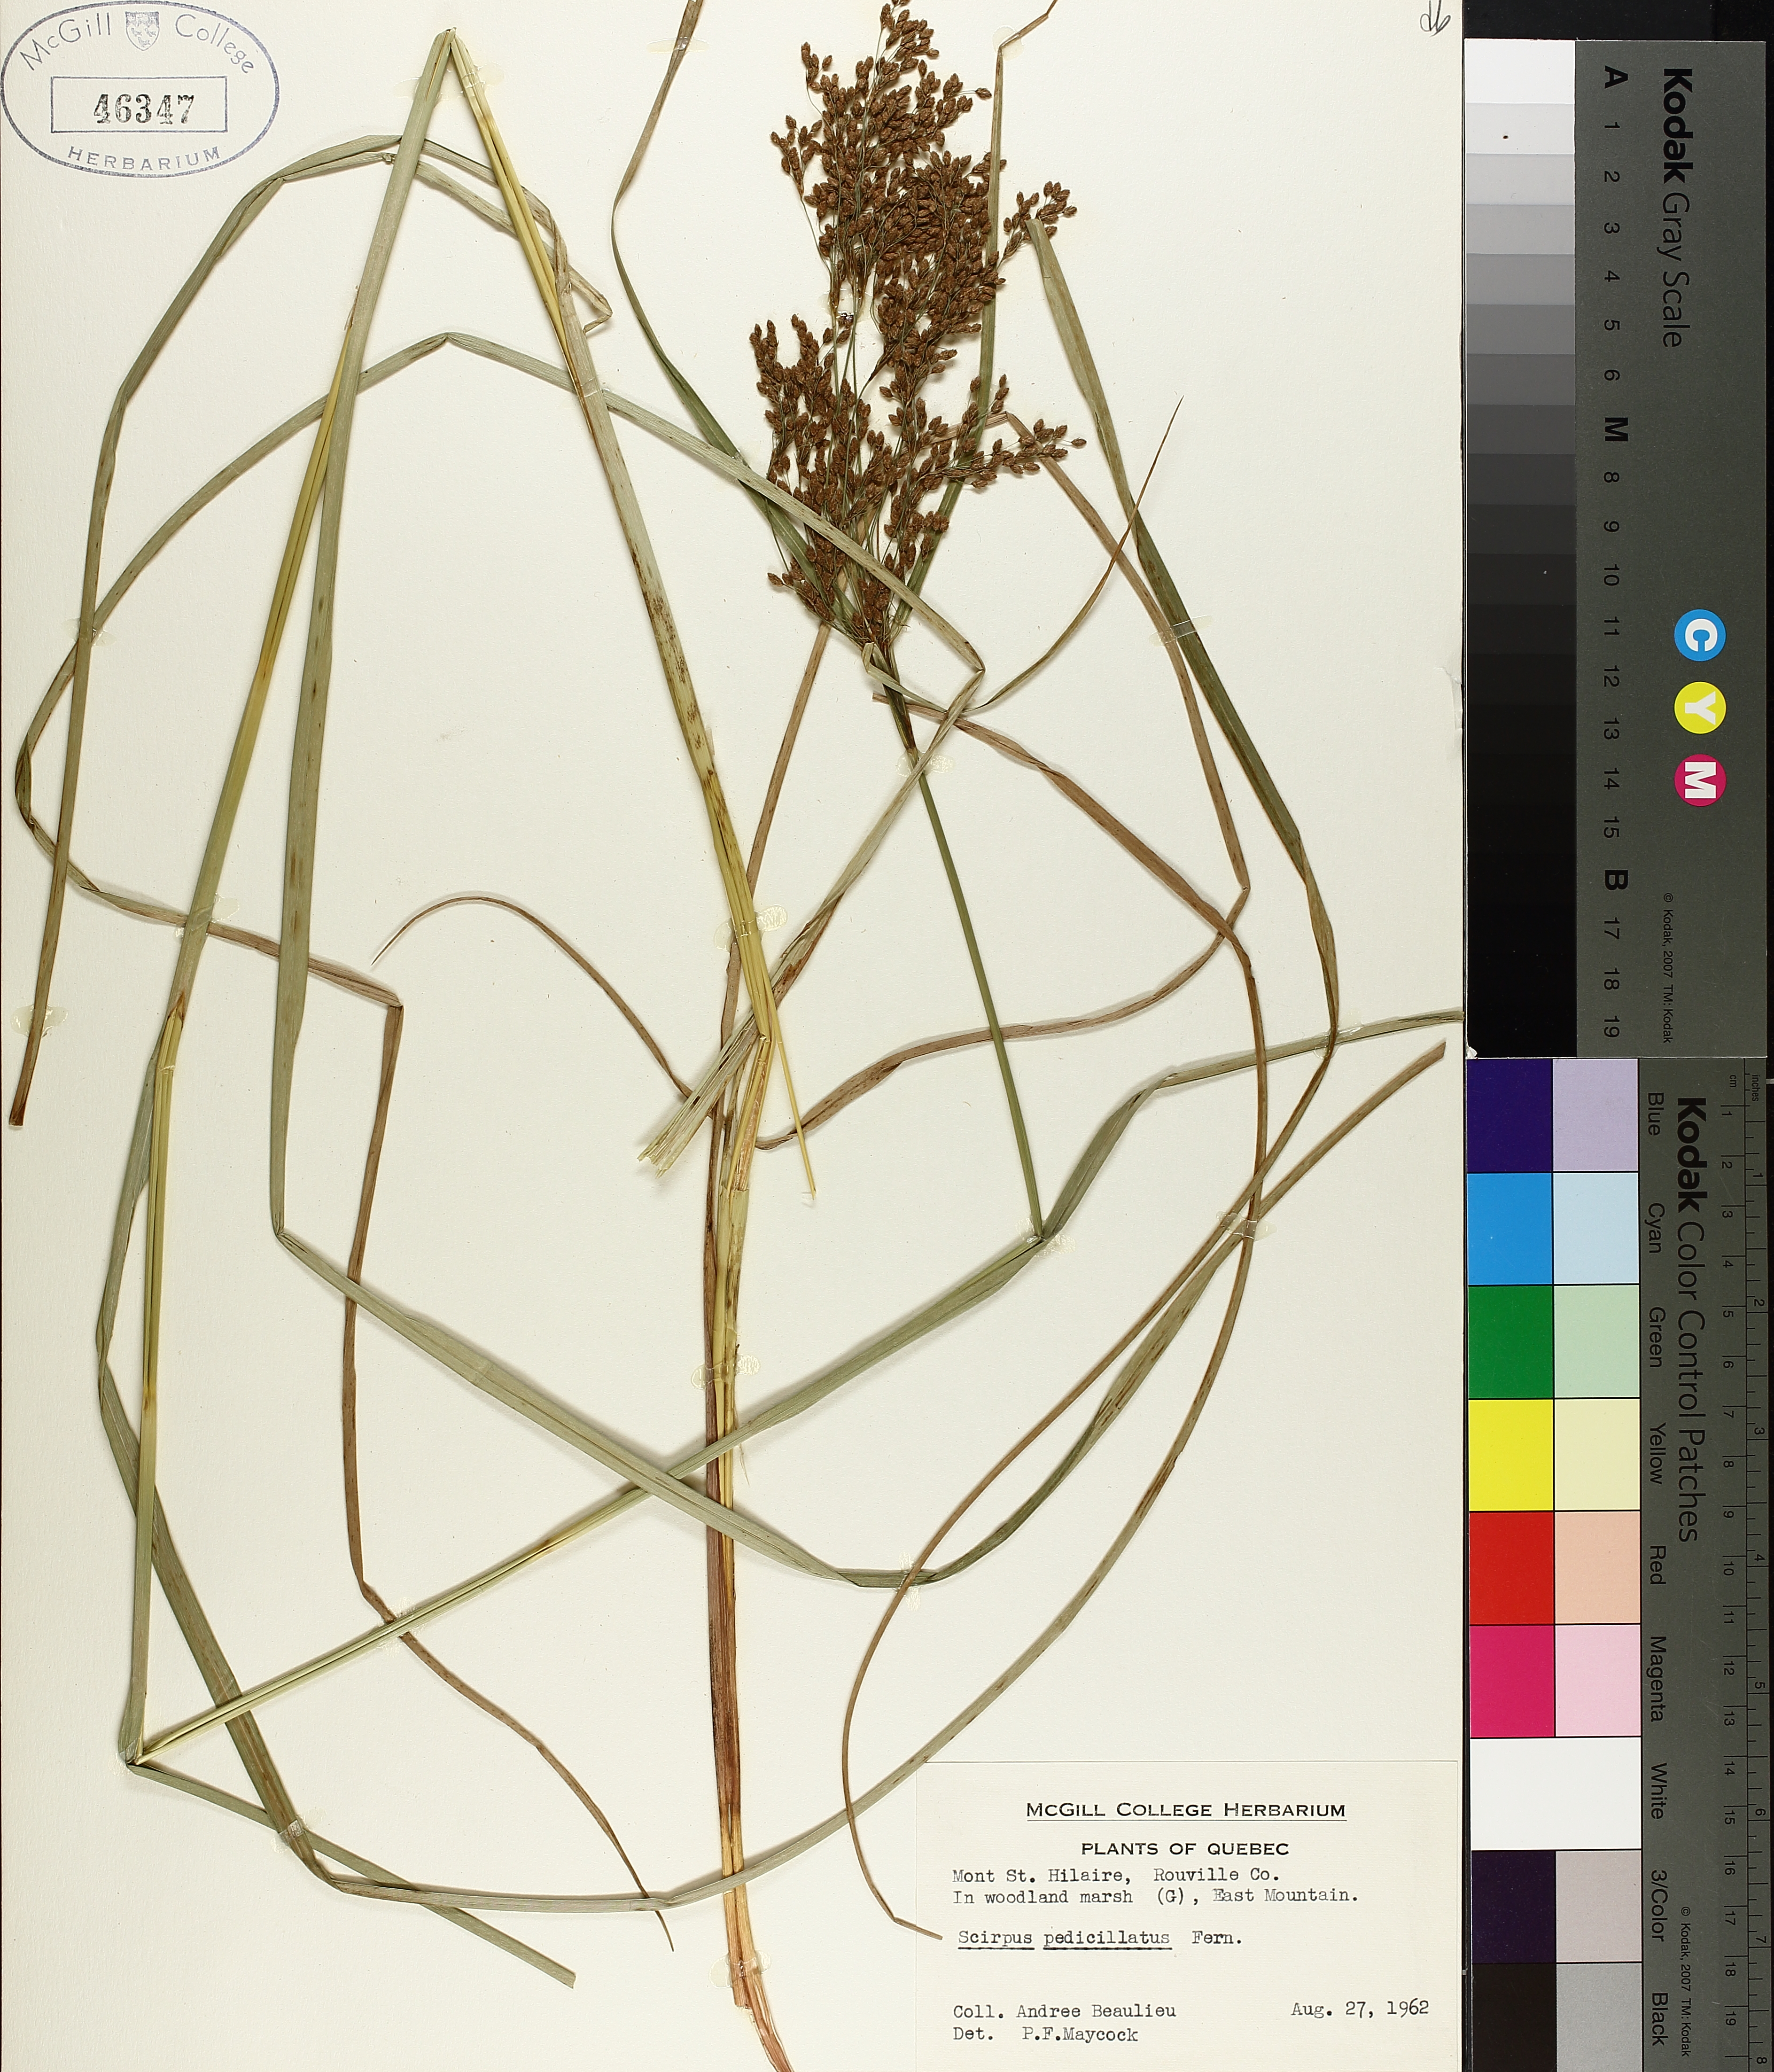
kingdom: Plantae
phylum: Tracheophyta
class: Liliopsida
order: Poales
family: Cyperaceae
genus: Scirpus
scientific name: Scirpus pedicellatus
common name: Pedicelled bulrush
